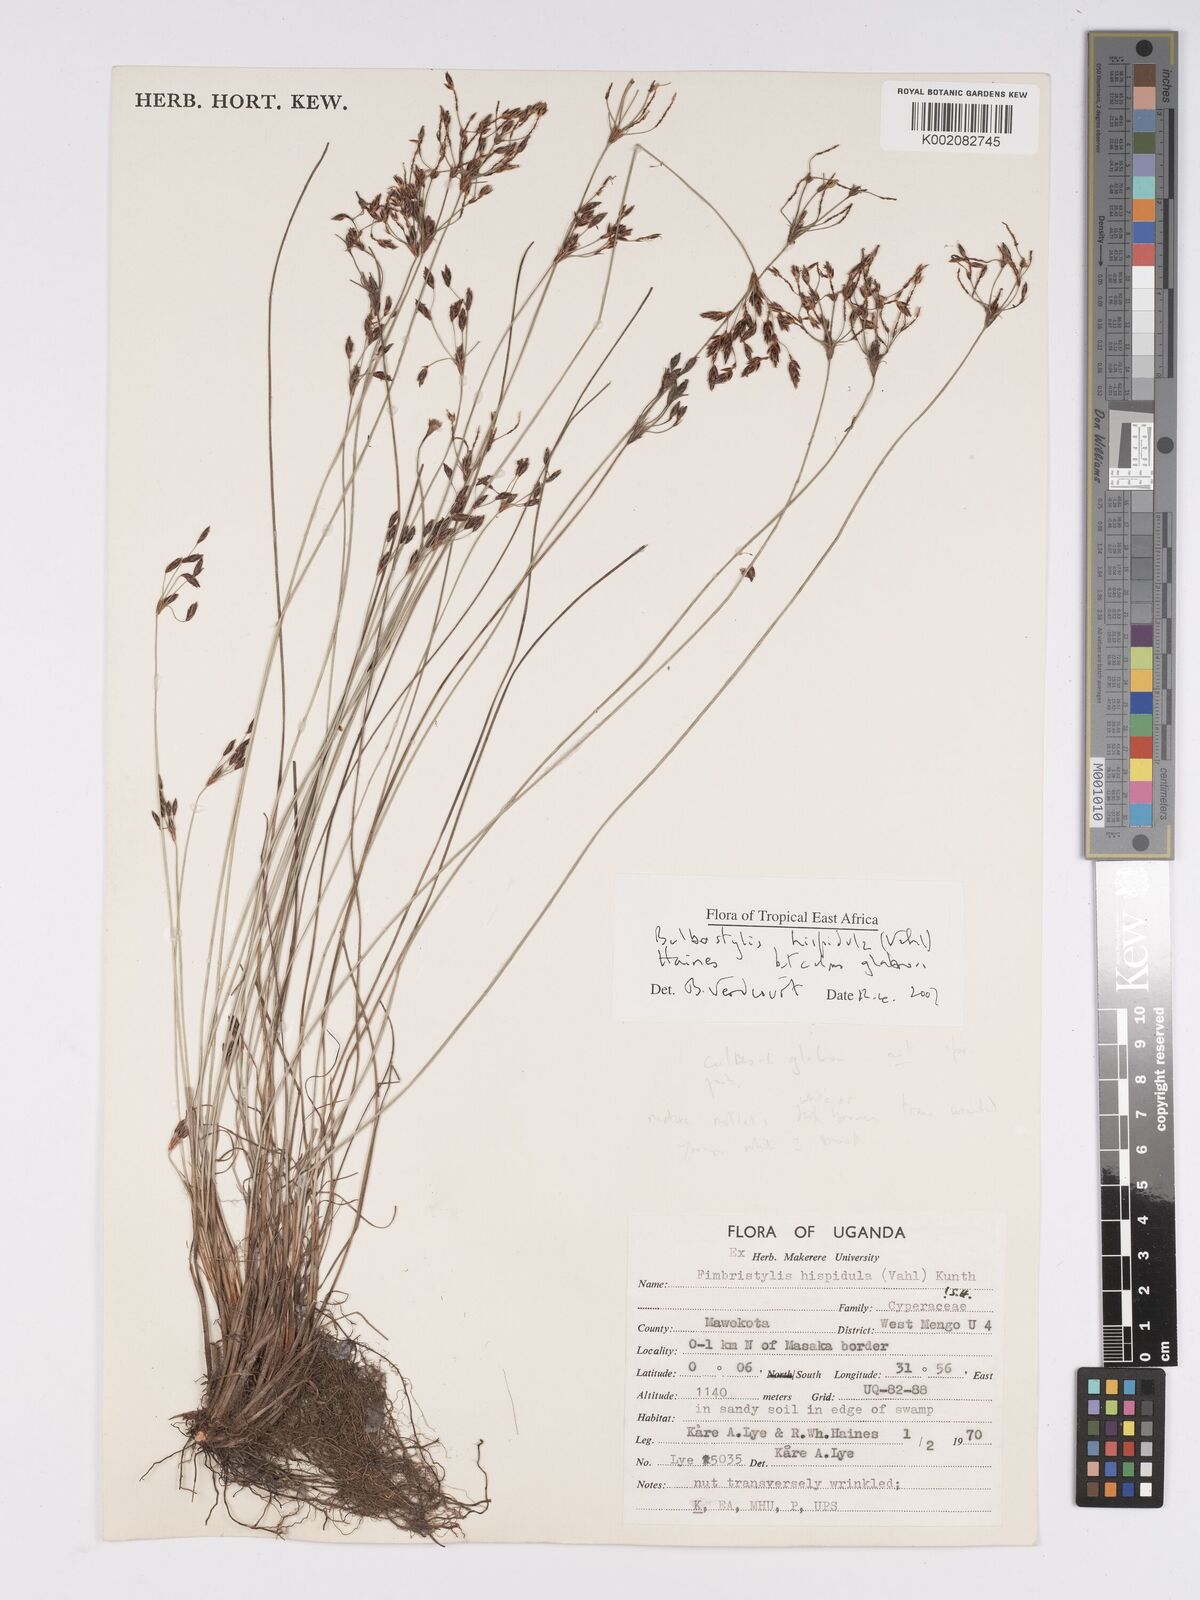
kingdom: Plantae
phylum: Tracheophyta
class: Liliopsida
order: Poales
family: Cyperaceae
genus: Bulbostylis
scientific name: Bulbostylis hispidula
